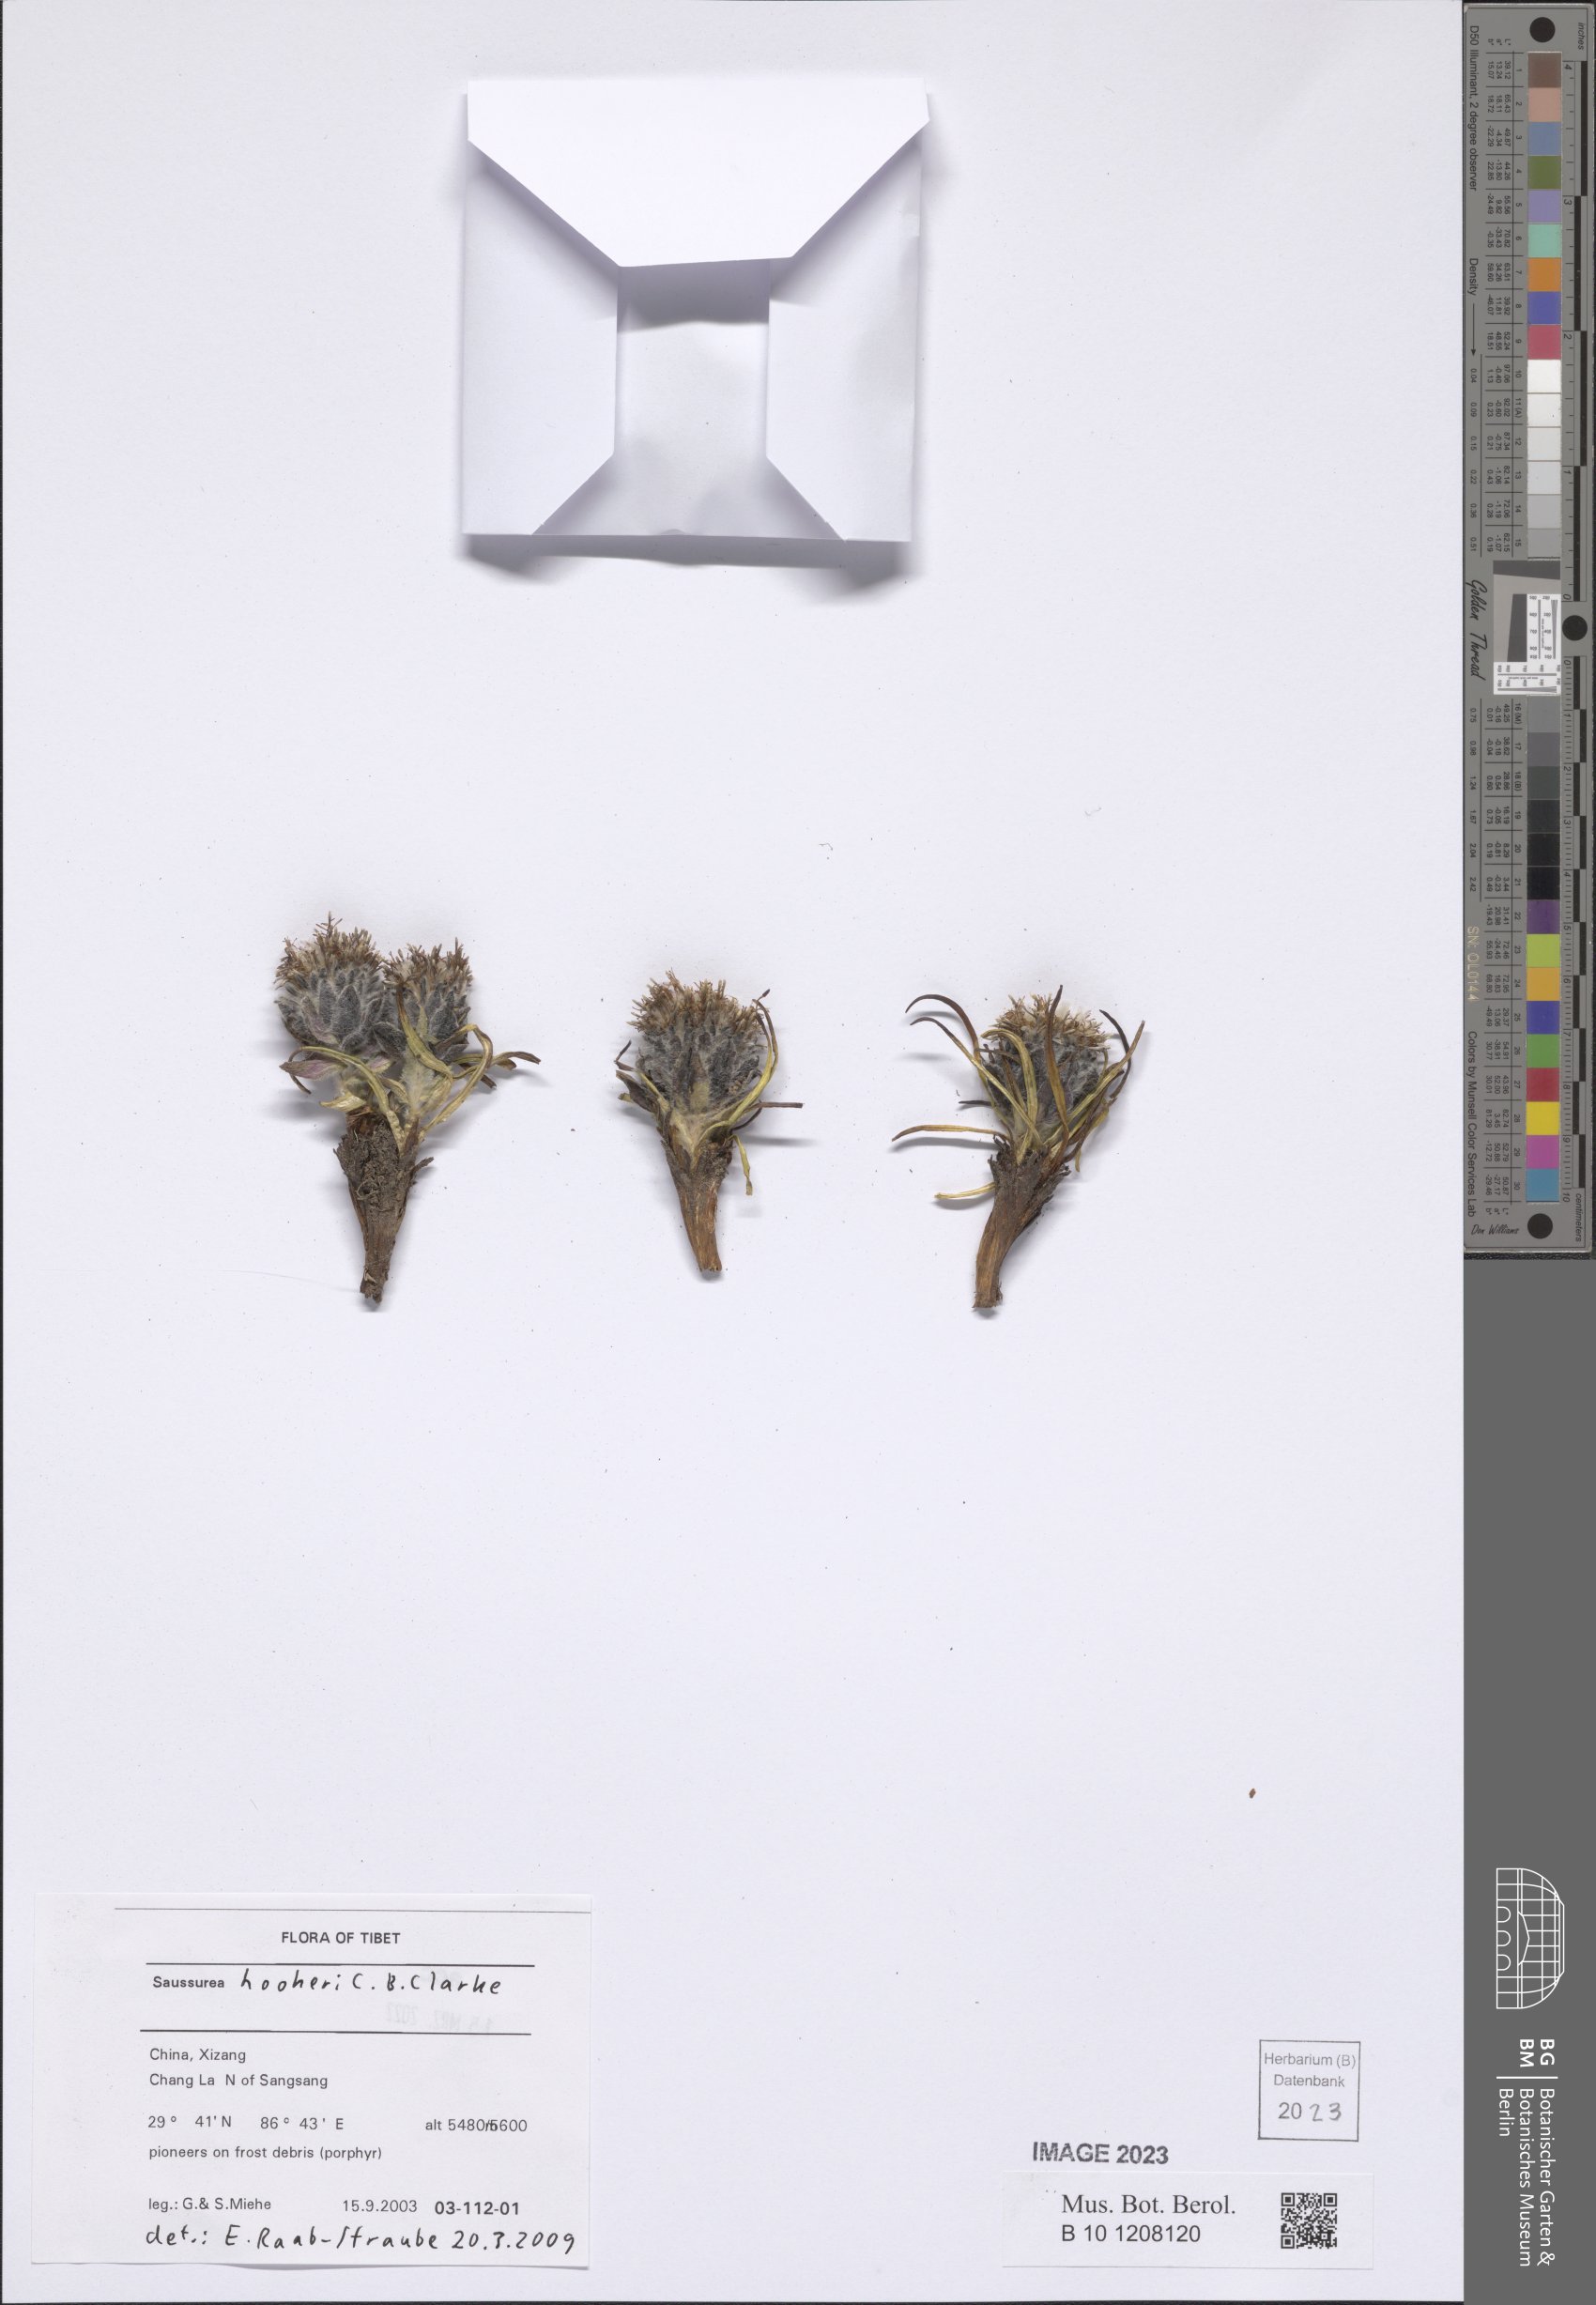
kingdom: Plantae
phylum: Tracheophyta
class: Magnoliopsida
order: Asterales
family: Asteraceae
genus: Saussurea
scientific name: Saussurea hookeri
